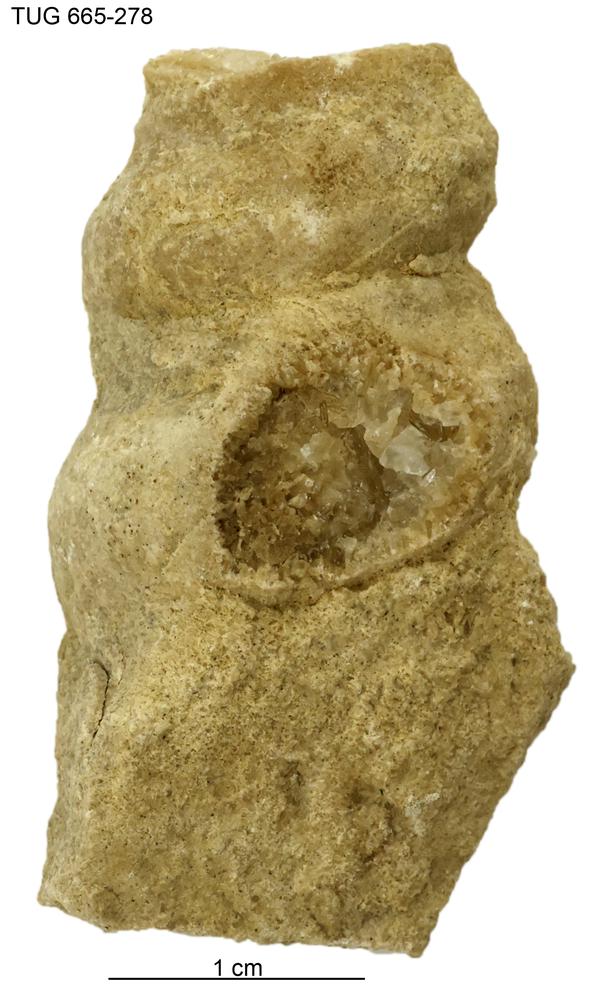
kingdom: Animalia
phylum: Mollusca
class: Gastropoda
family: Lophospiridae
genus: Ectomaria
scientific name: Ectomaria Murchisonia nieszkowskii
